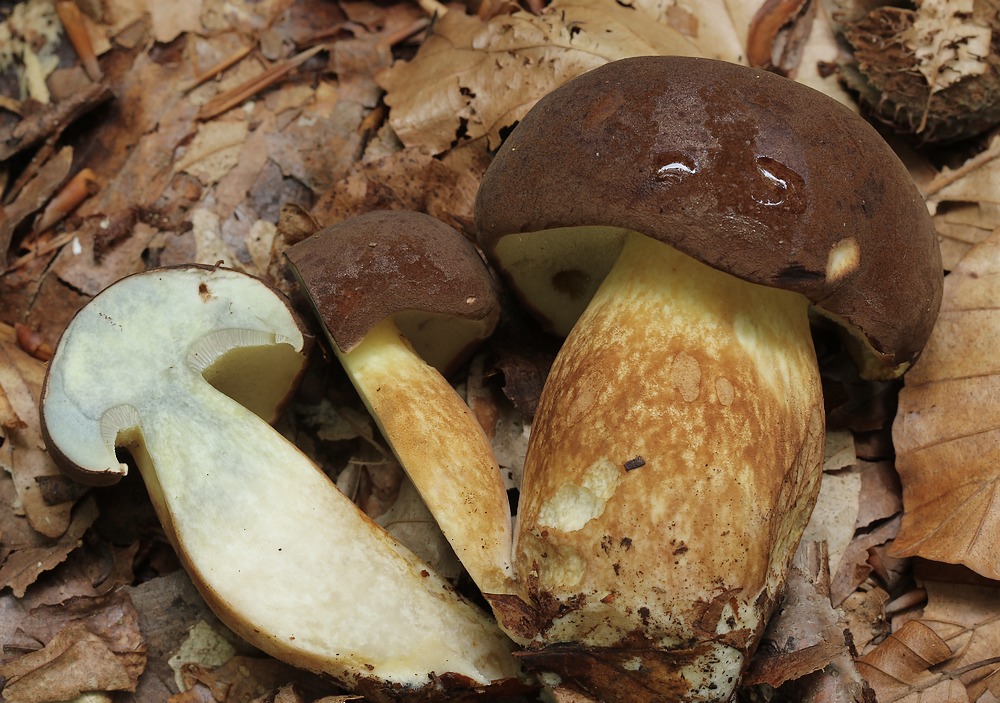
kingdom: Fungi
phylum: Basidiomycota
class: Agaricomycetes
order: Boletales
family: Boletaceae
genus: Imleria
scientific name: Imleria badia
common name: brunstokket rørhat
